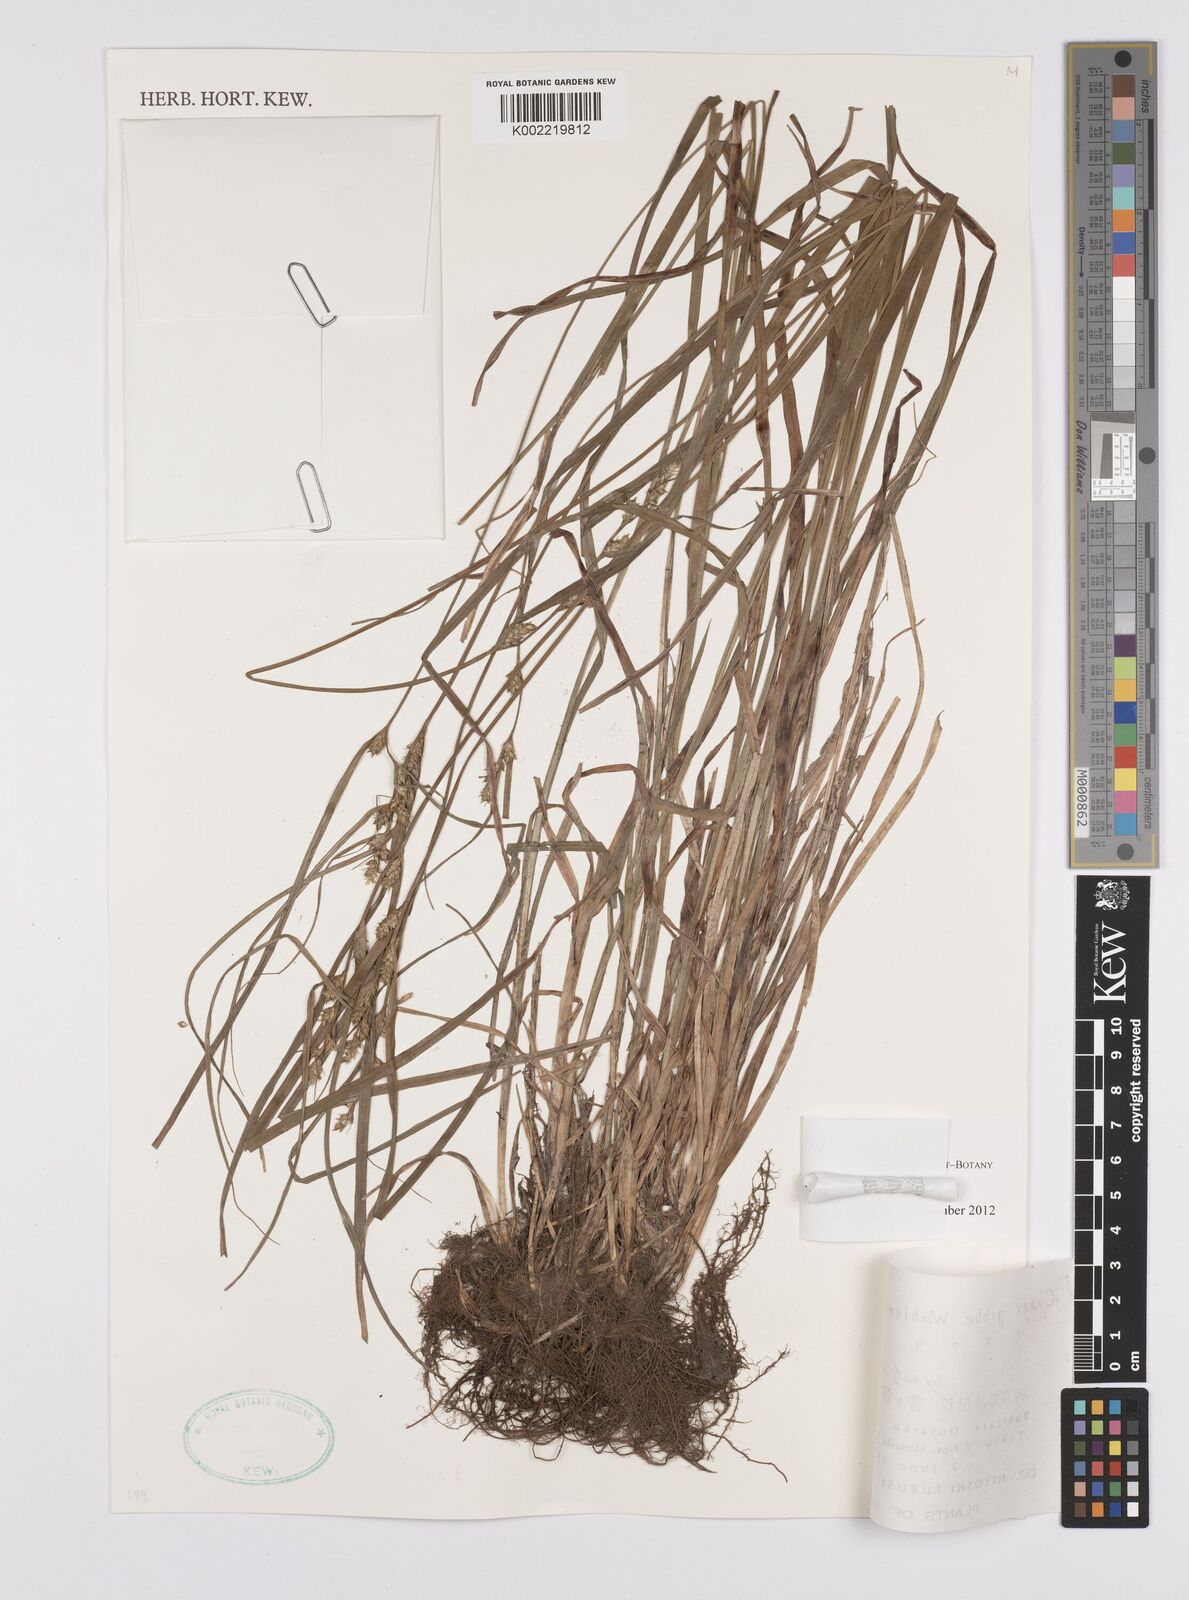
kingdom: Plantae
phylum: Tracheophyta
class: Liliopsida
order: Poales
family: Cyperaceae
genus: Carex
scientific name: Carex gibba
